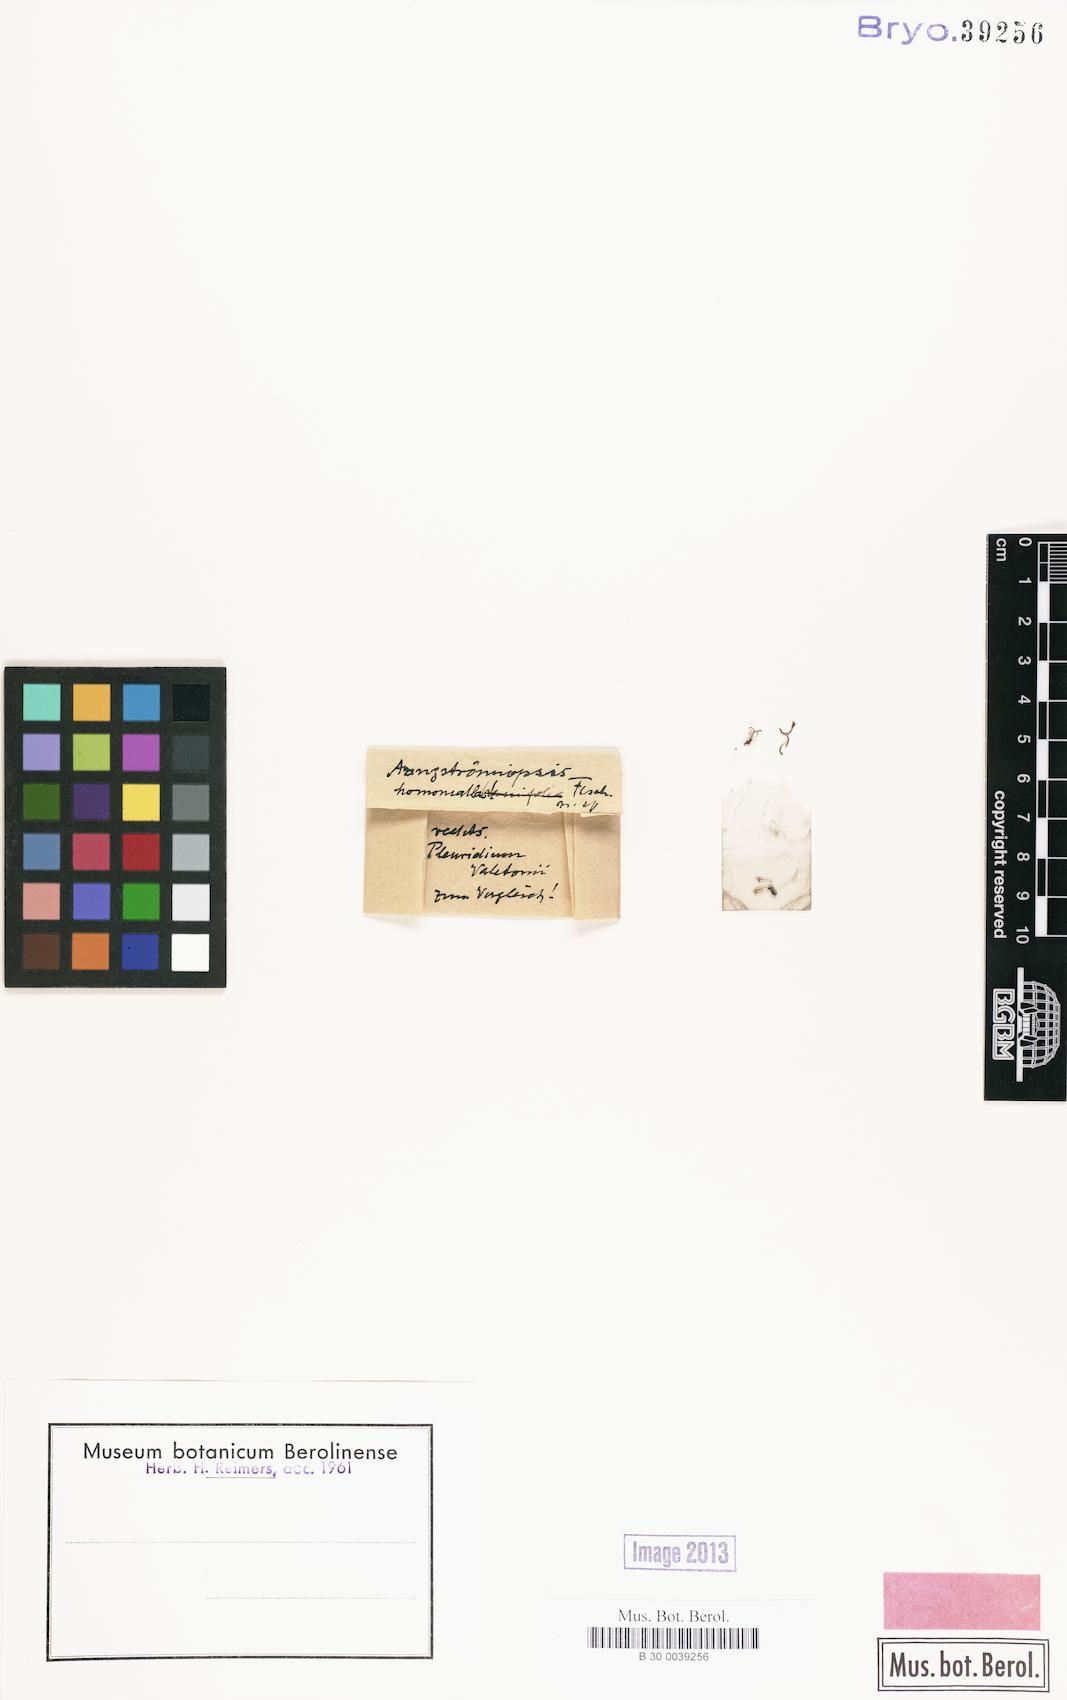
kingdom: Plantae
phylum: Bryophyta
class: Bryopsida
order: Dicranales
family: Aongstroemiaceae
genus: Aongstroemiopsis
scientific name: Aongstroemiopsis
